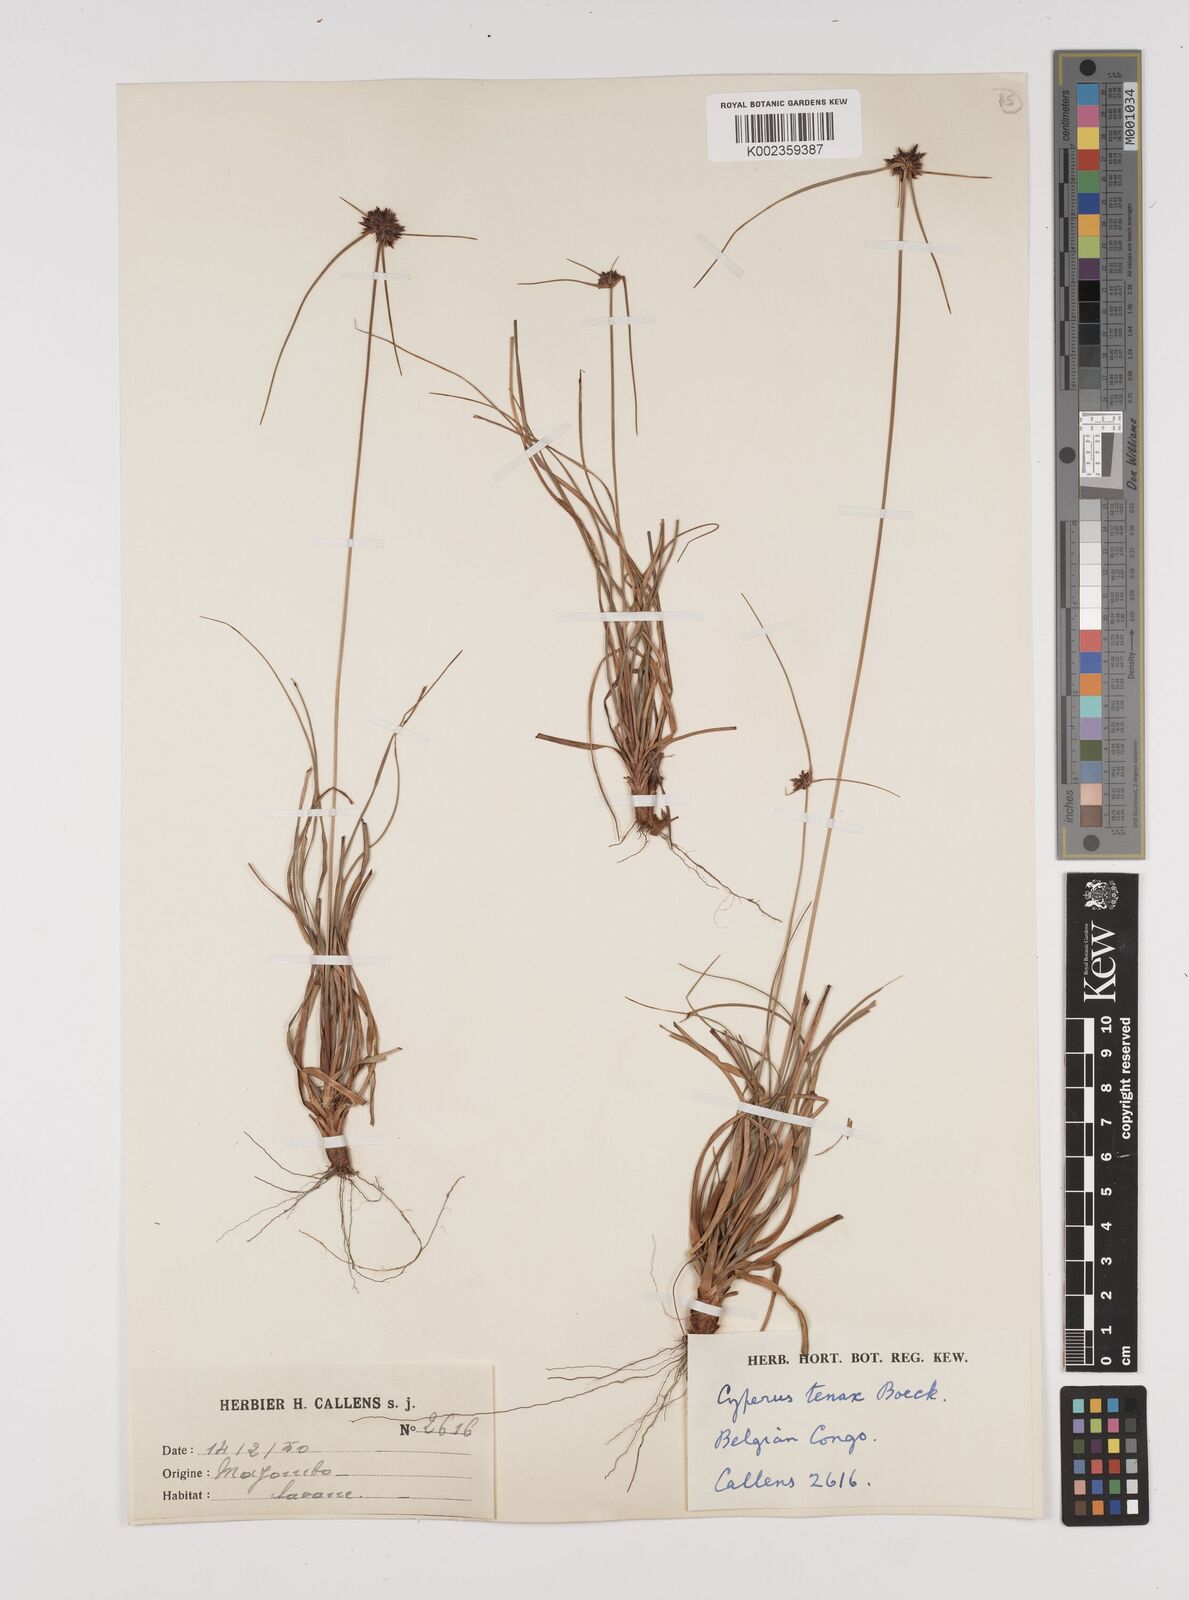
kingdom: Plantae
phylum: Tracheophyta
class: Liliopsida
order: Poales
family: Cyperaceae
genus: Cyperus
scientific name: Cyperus tenax
